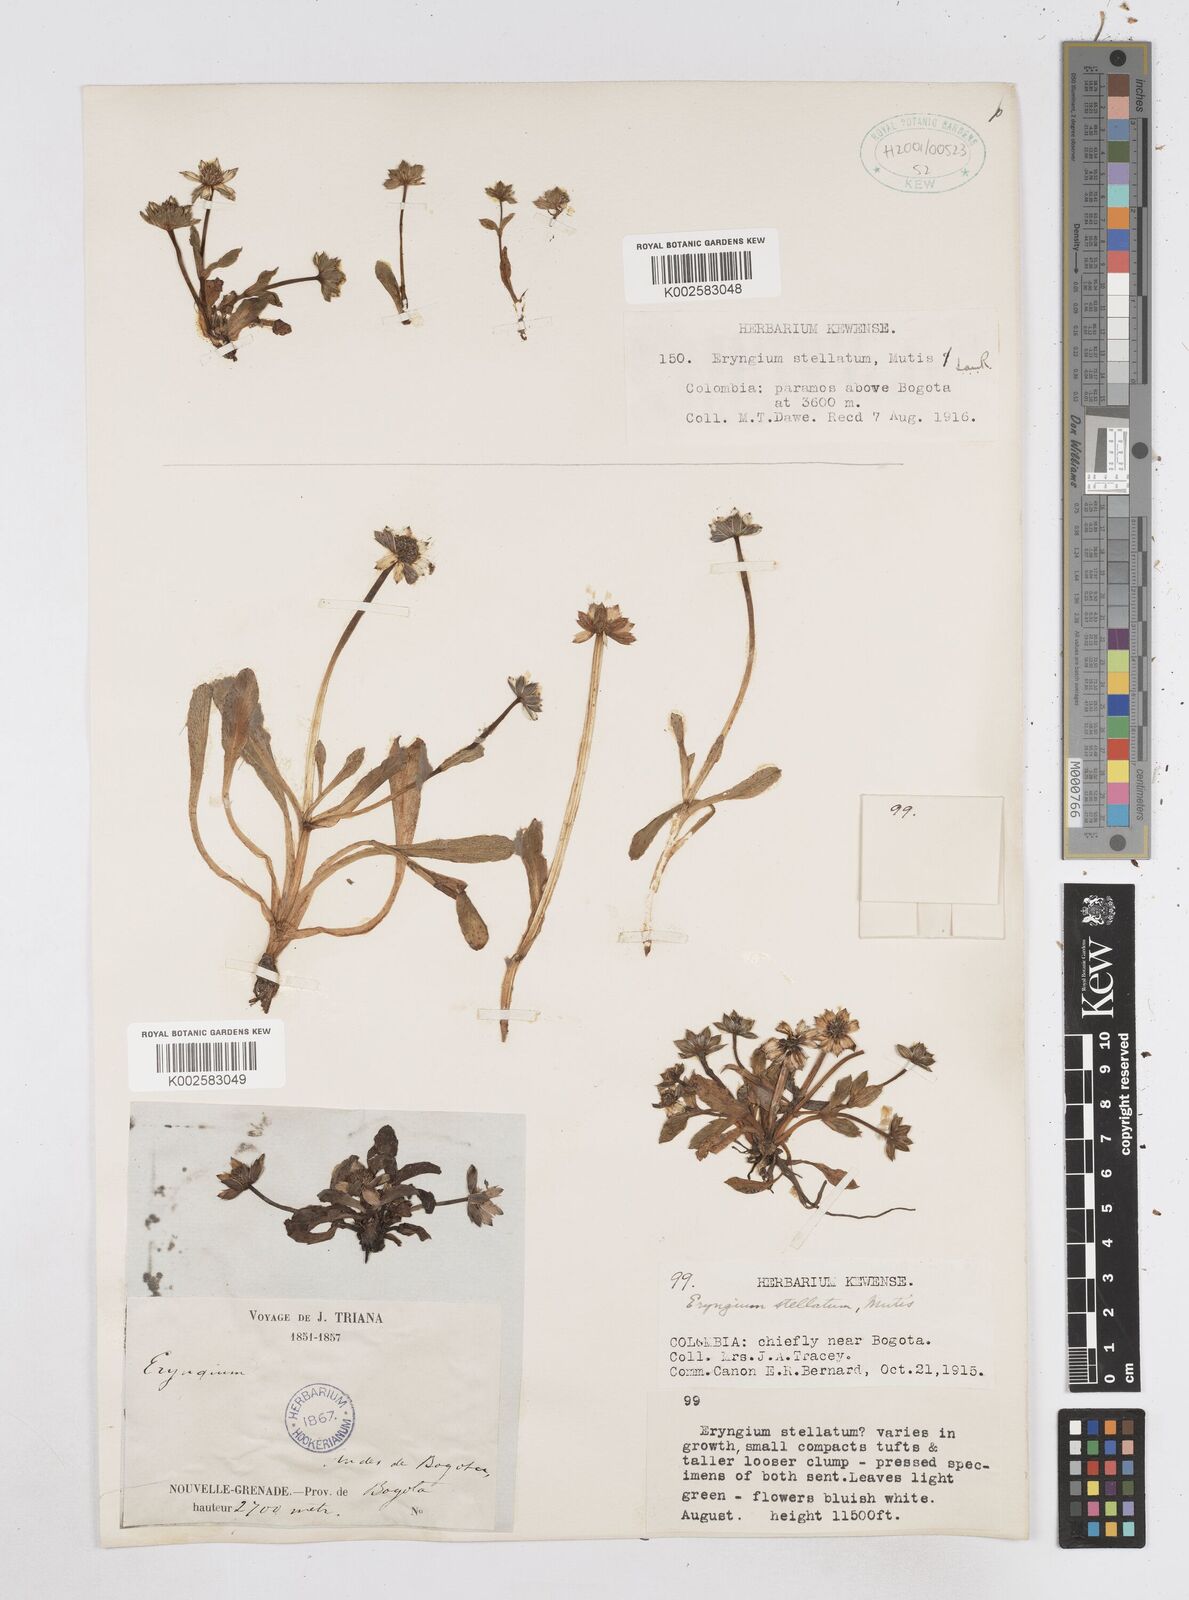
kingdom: Plantae
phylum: Tracheophyta
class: Magnoliopsida
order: Apiales
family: Apiaceae
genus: Eryngium
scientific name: Eryngium humile
